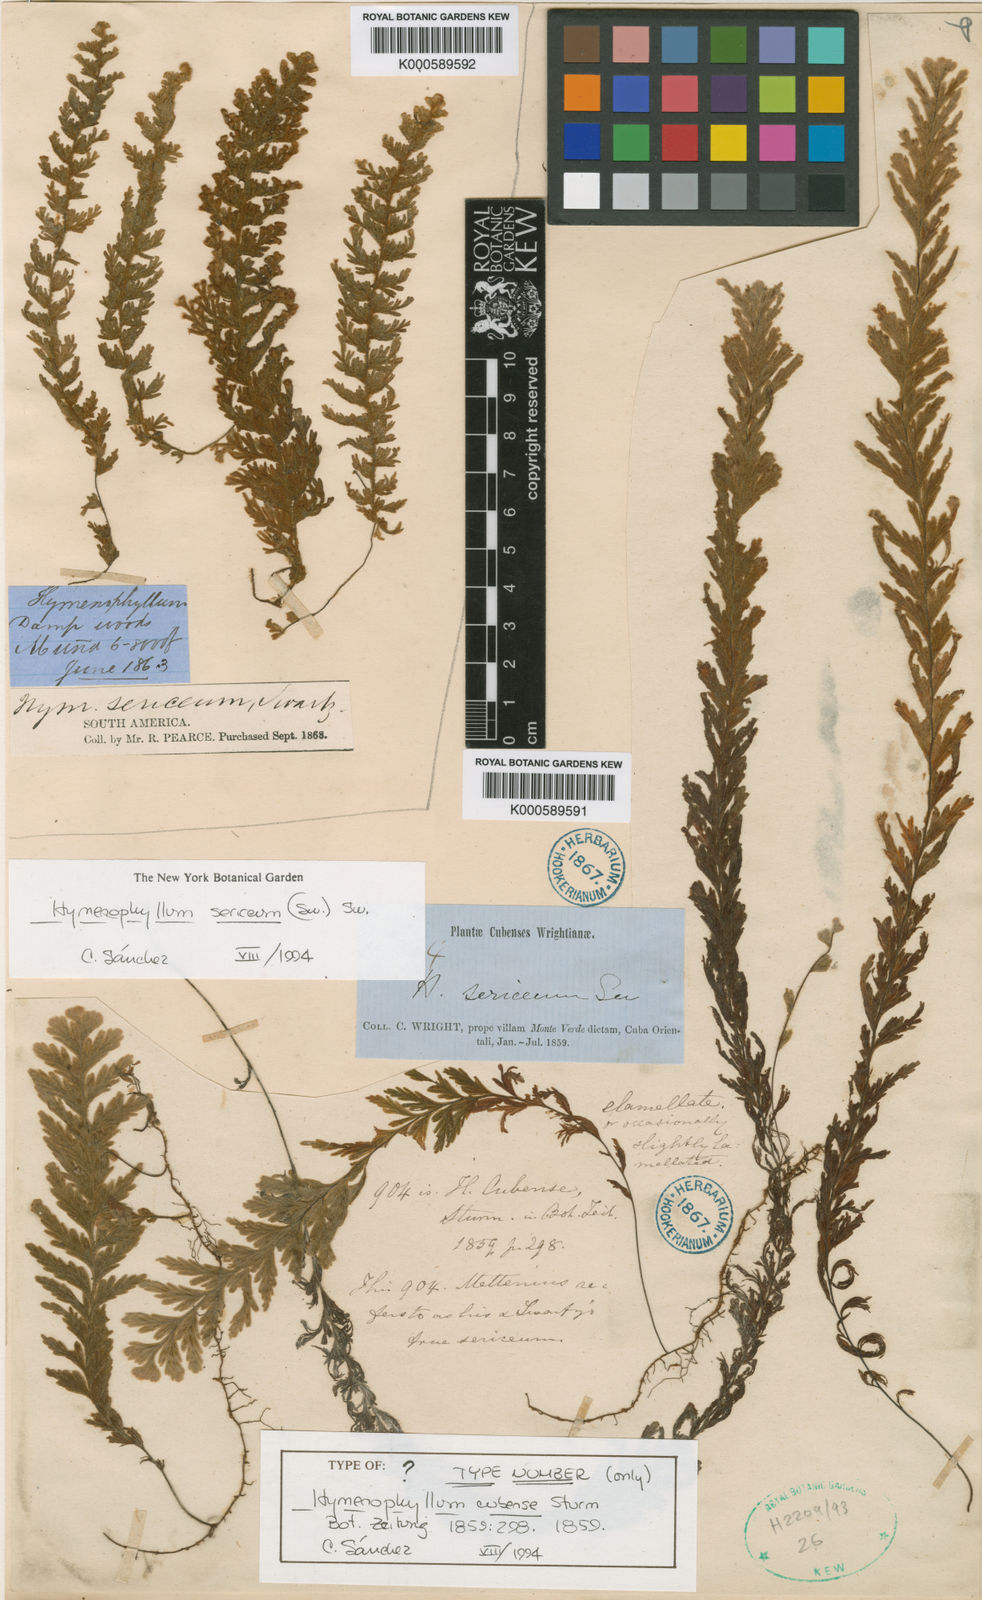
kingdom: Plantae
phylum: Tracheophyta
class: Polypodiopsida
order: Hymenophyllales
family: Hymenophyllaceae
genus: Hymenophyllum
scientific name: Hymenophyllum sericeum
